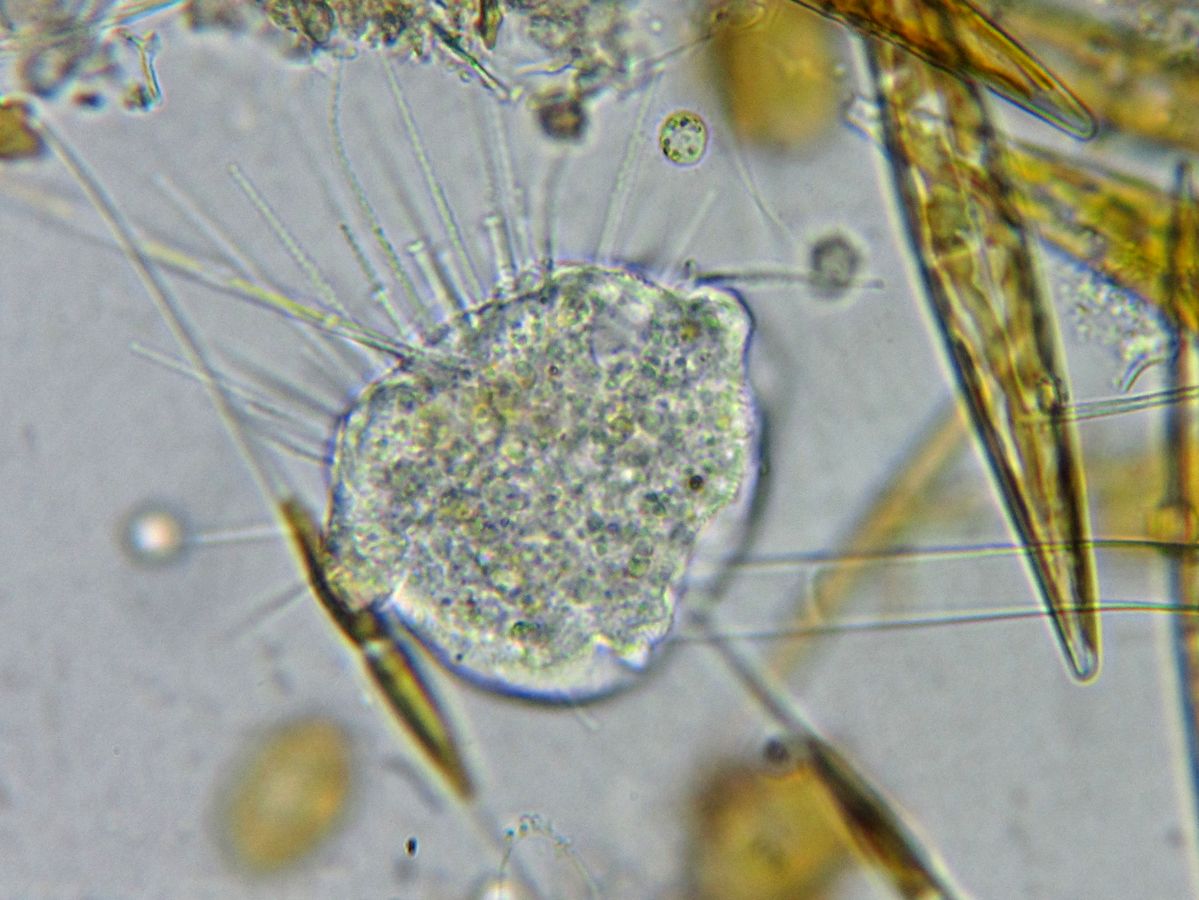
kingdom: Chromista
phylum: Ciliophora
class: Phyllopharyngea
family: Ephelotidae
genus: Ephelota
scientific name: Ephelota mammillata
